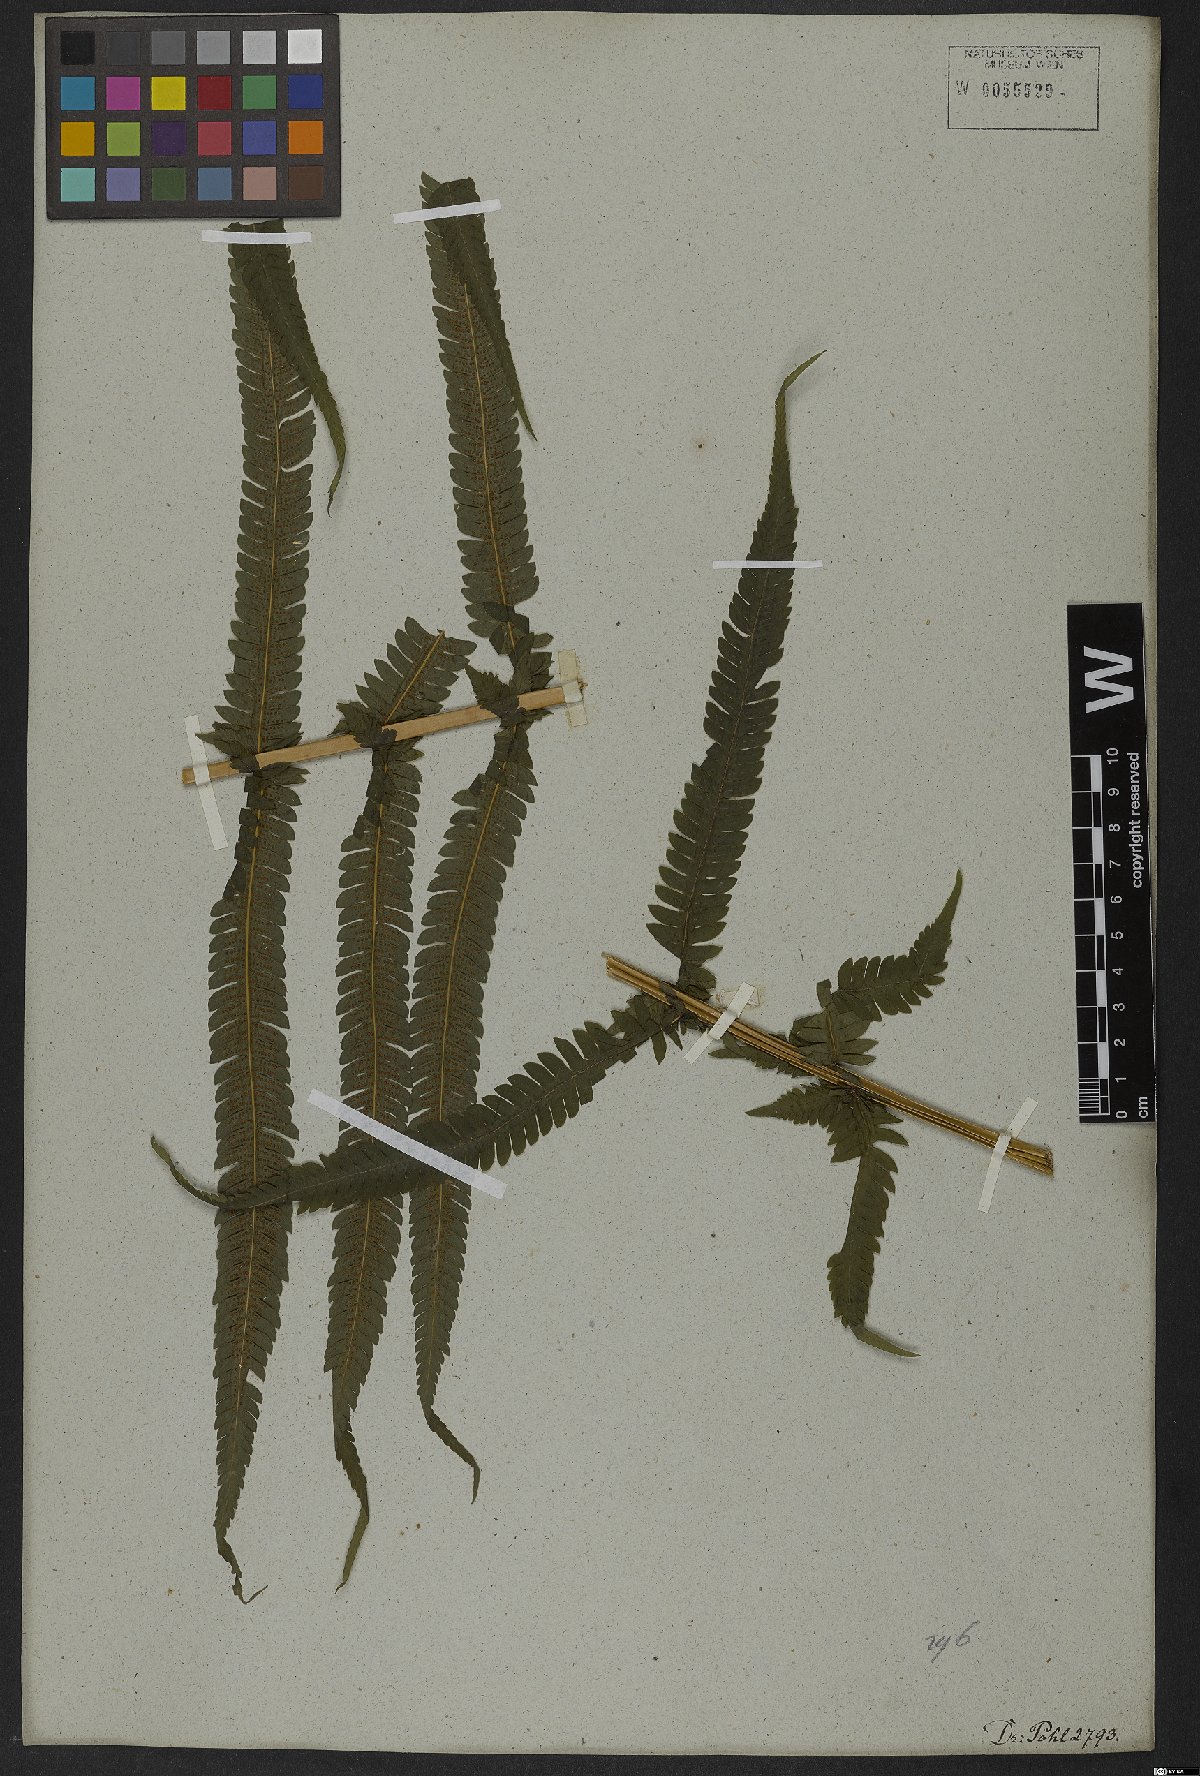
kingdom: Plantae
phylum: Tracheophyta
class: Polypodiopsida
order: Polypodiales
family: Thelypteridaceae
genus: Pelazoneuron
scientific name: Pelazoneuron patens
